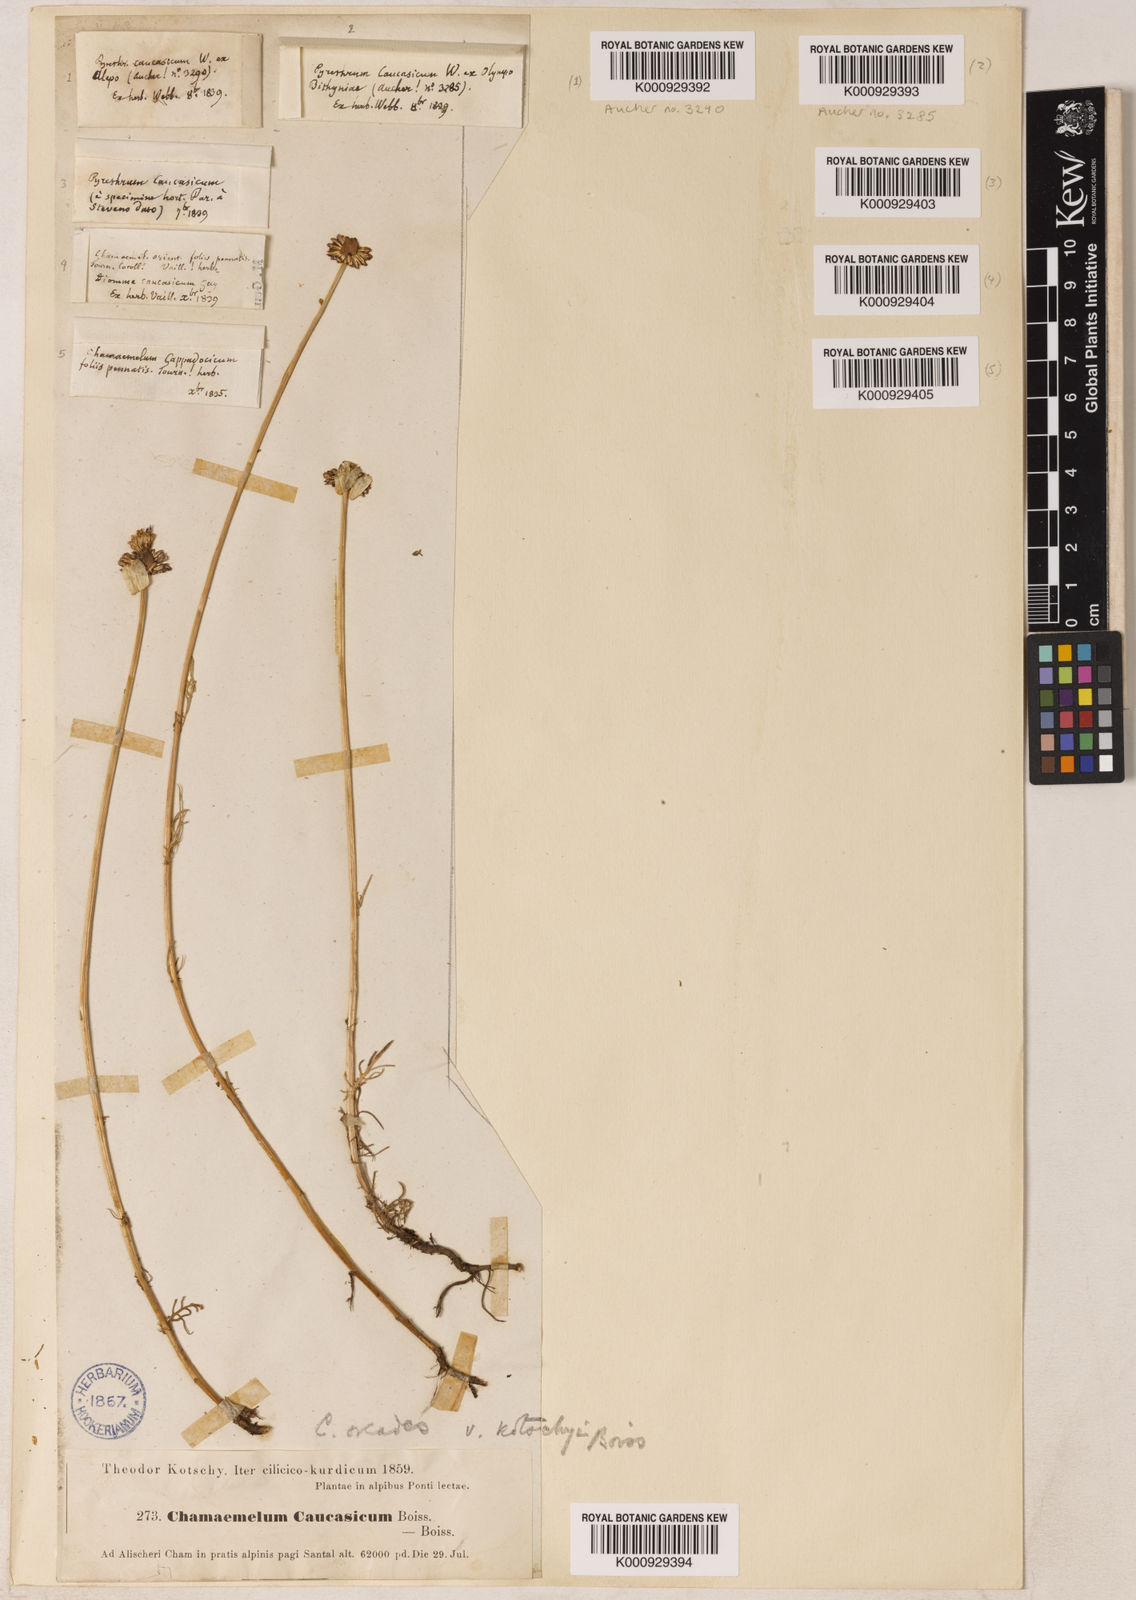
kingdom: Plantae
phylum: Tracheophyta
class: Magnoliopsida
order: Asterales
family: Asteraceae
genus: Tripleurospermum
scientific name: Tripleurospermum caucasicum
